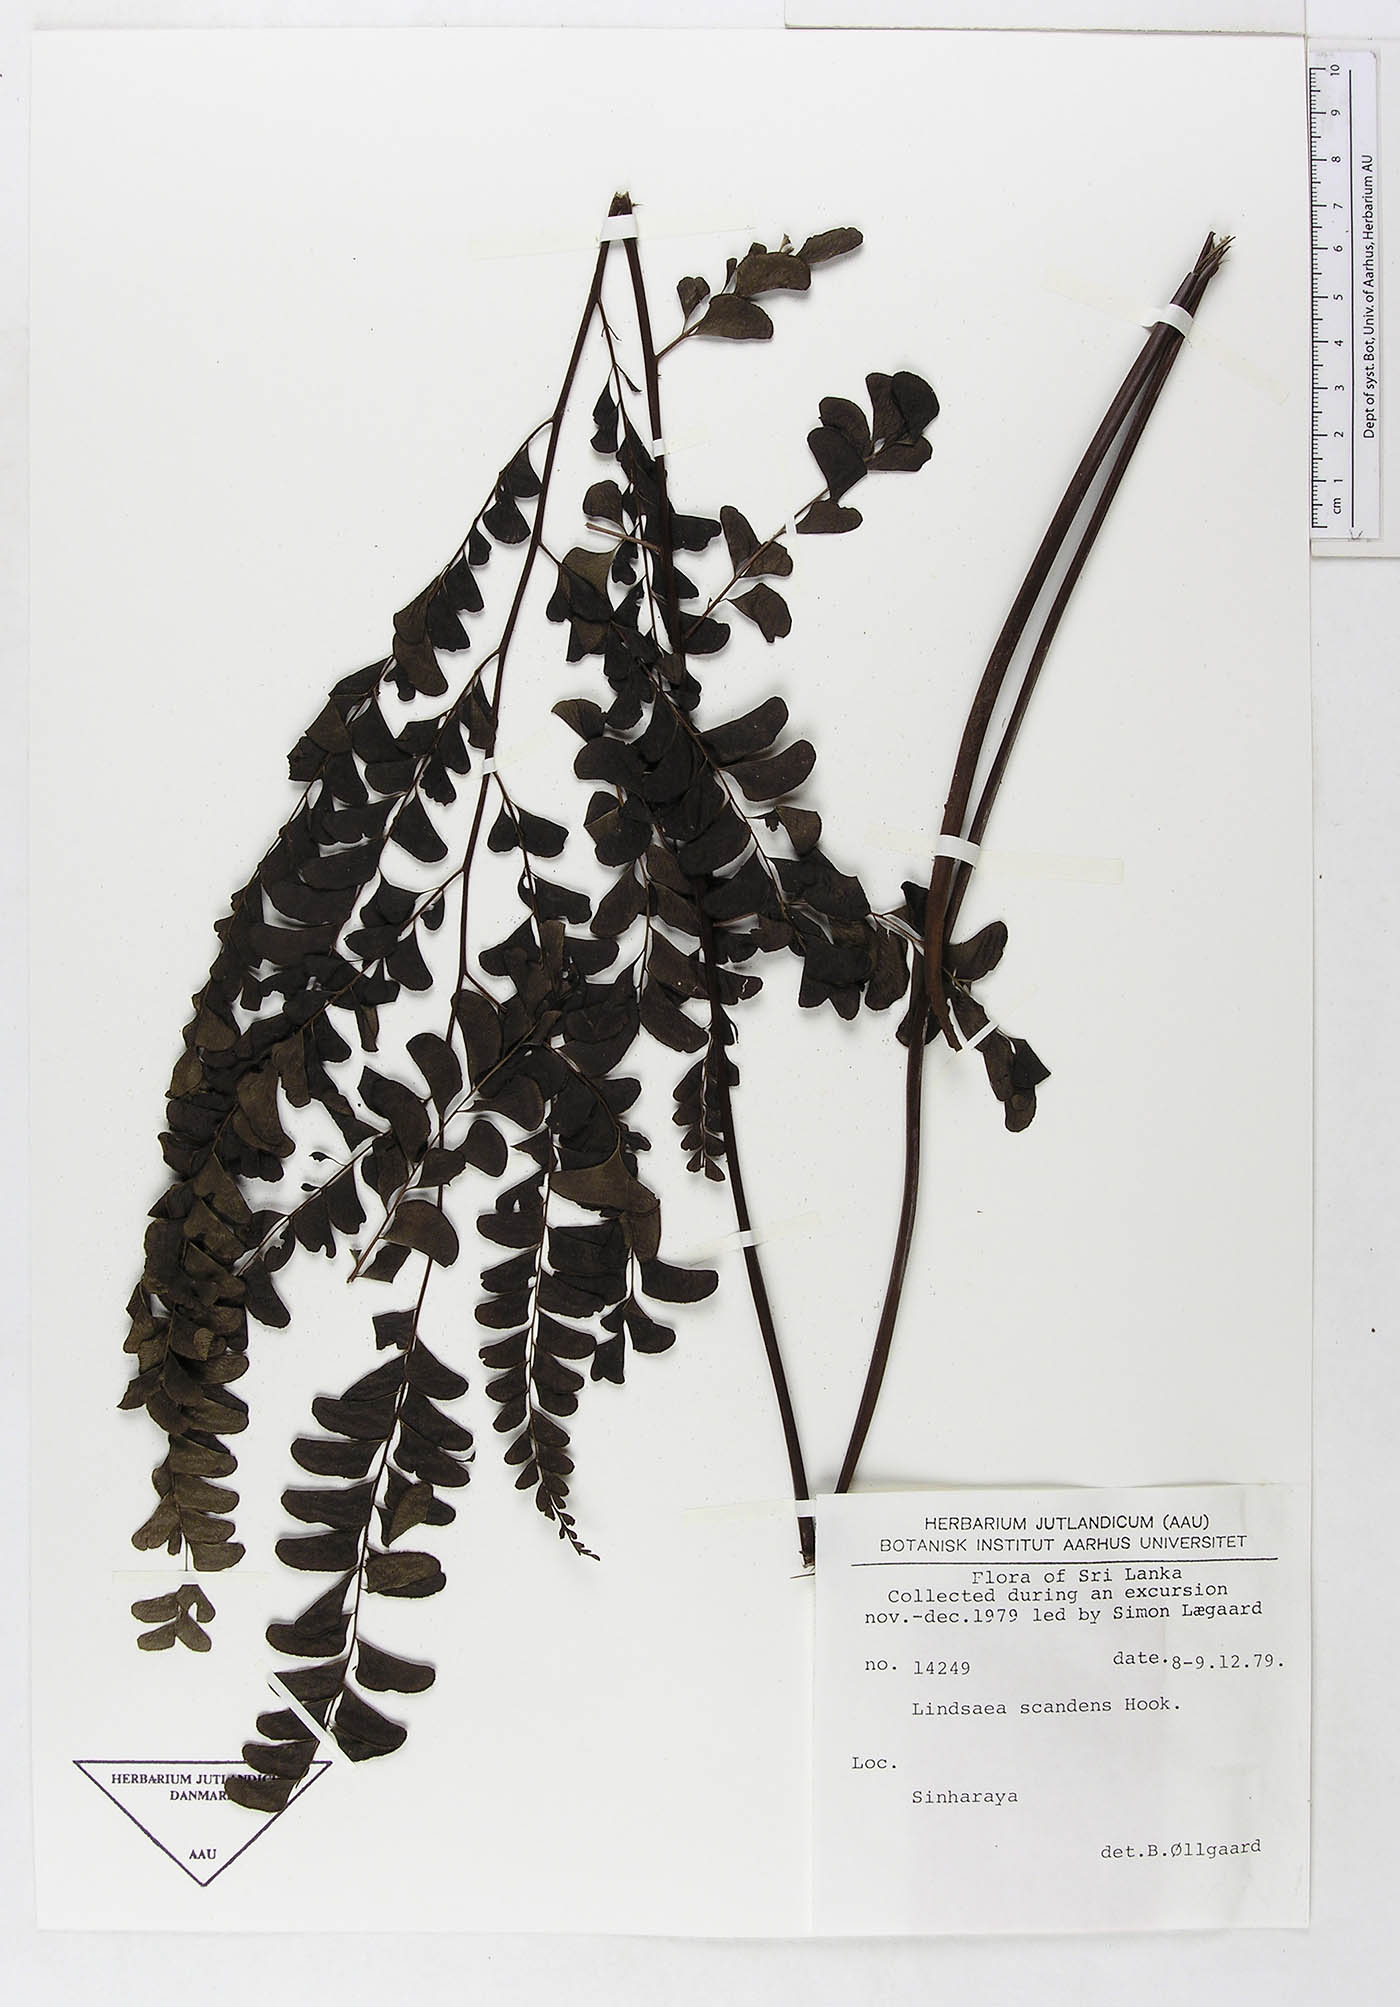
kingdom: Plantae
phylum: Tracheophyta
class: Polypodiopsida
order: Polypodiales
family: Lindsaeaceae
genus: Nesolindsaea
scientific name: Nesolindsaea caudata
